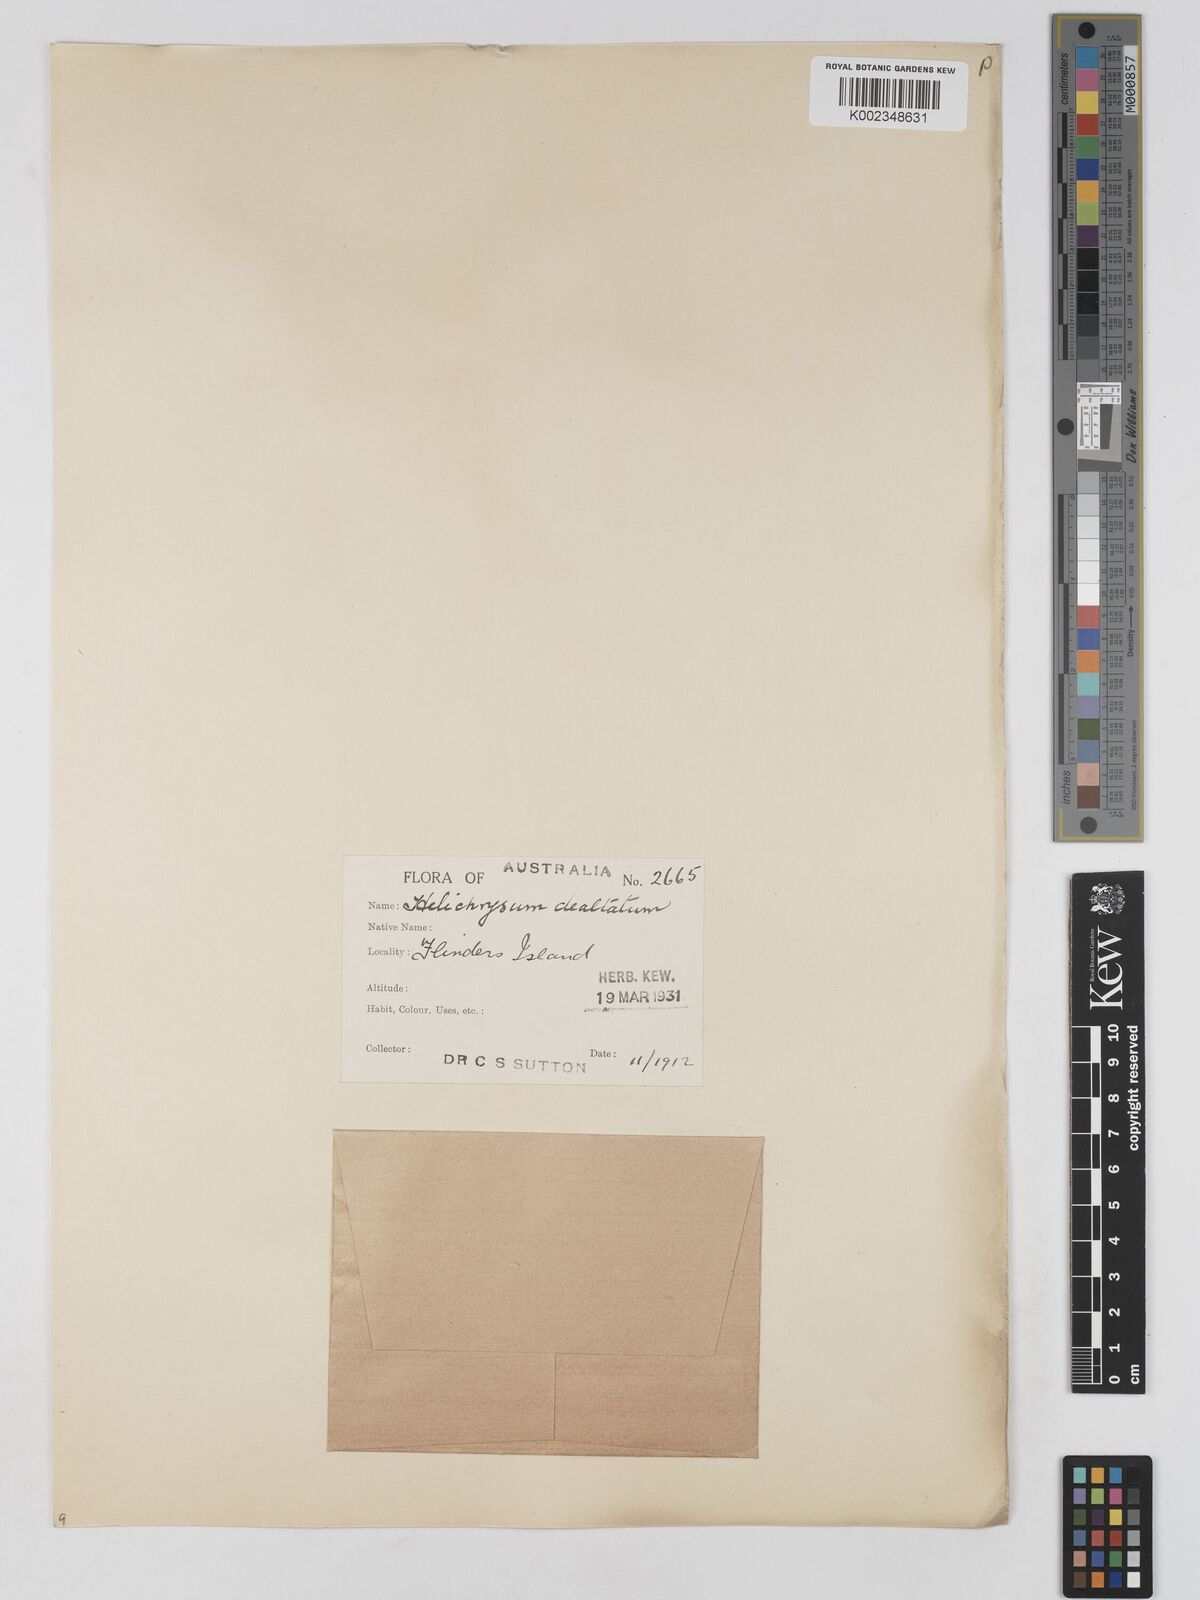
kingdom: Plantae
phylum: Tracheophyta
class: Magnoliopsida
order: Asterales
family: Asteraceae
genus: Argentipallium
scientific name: Argentipallium dealbatum
